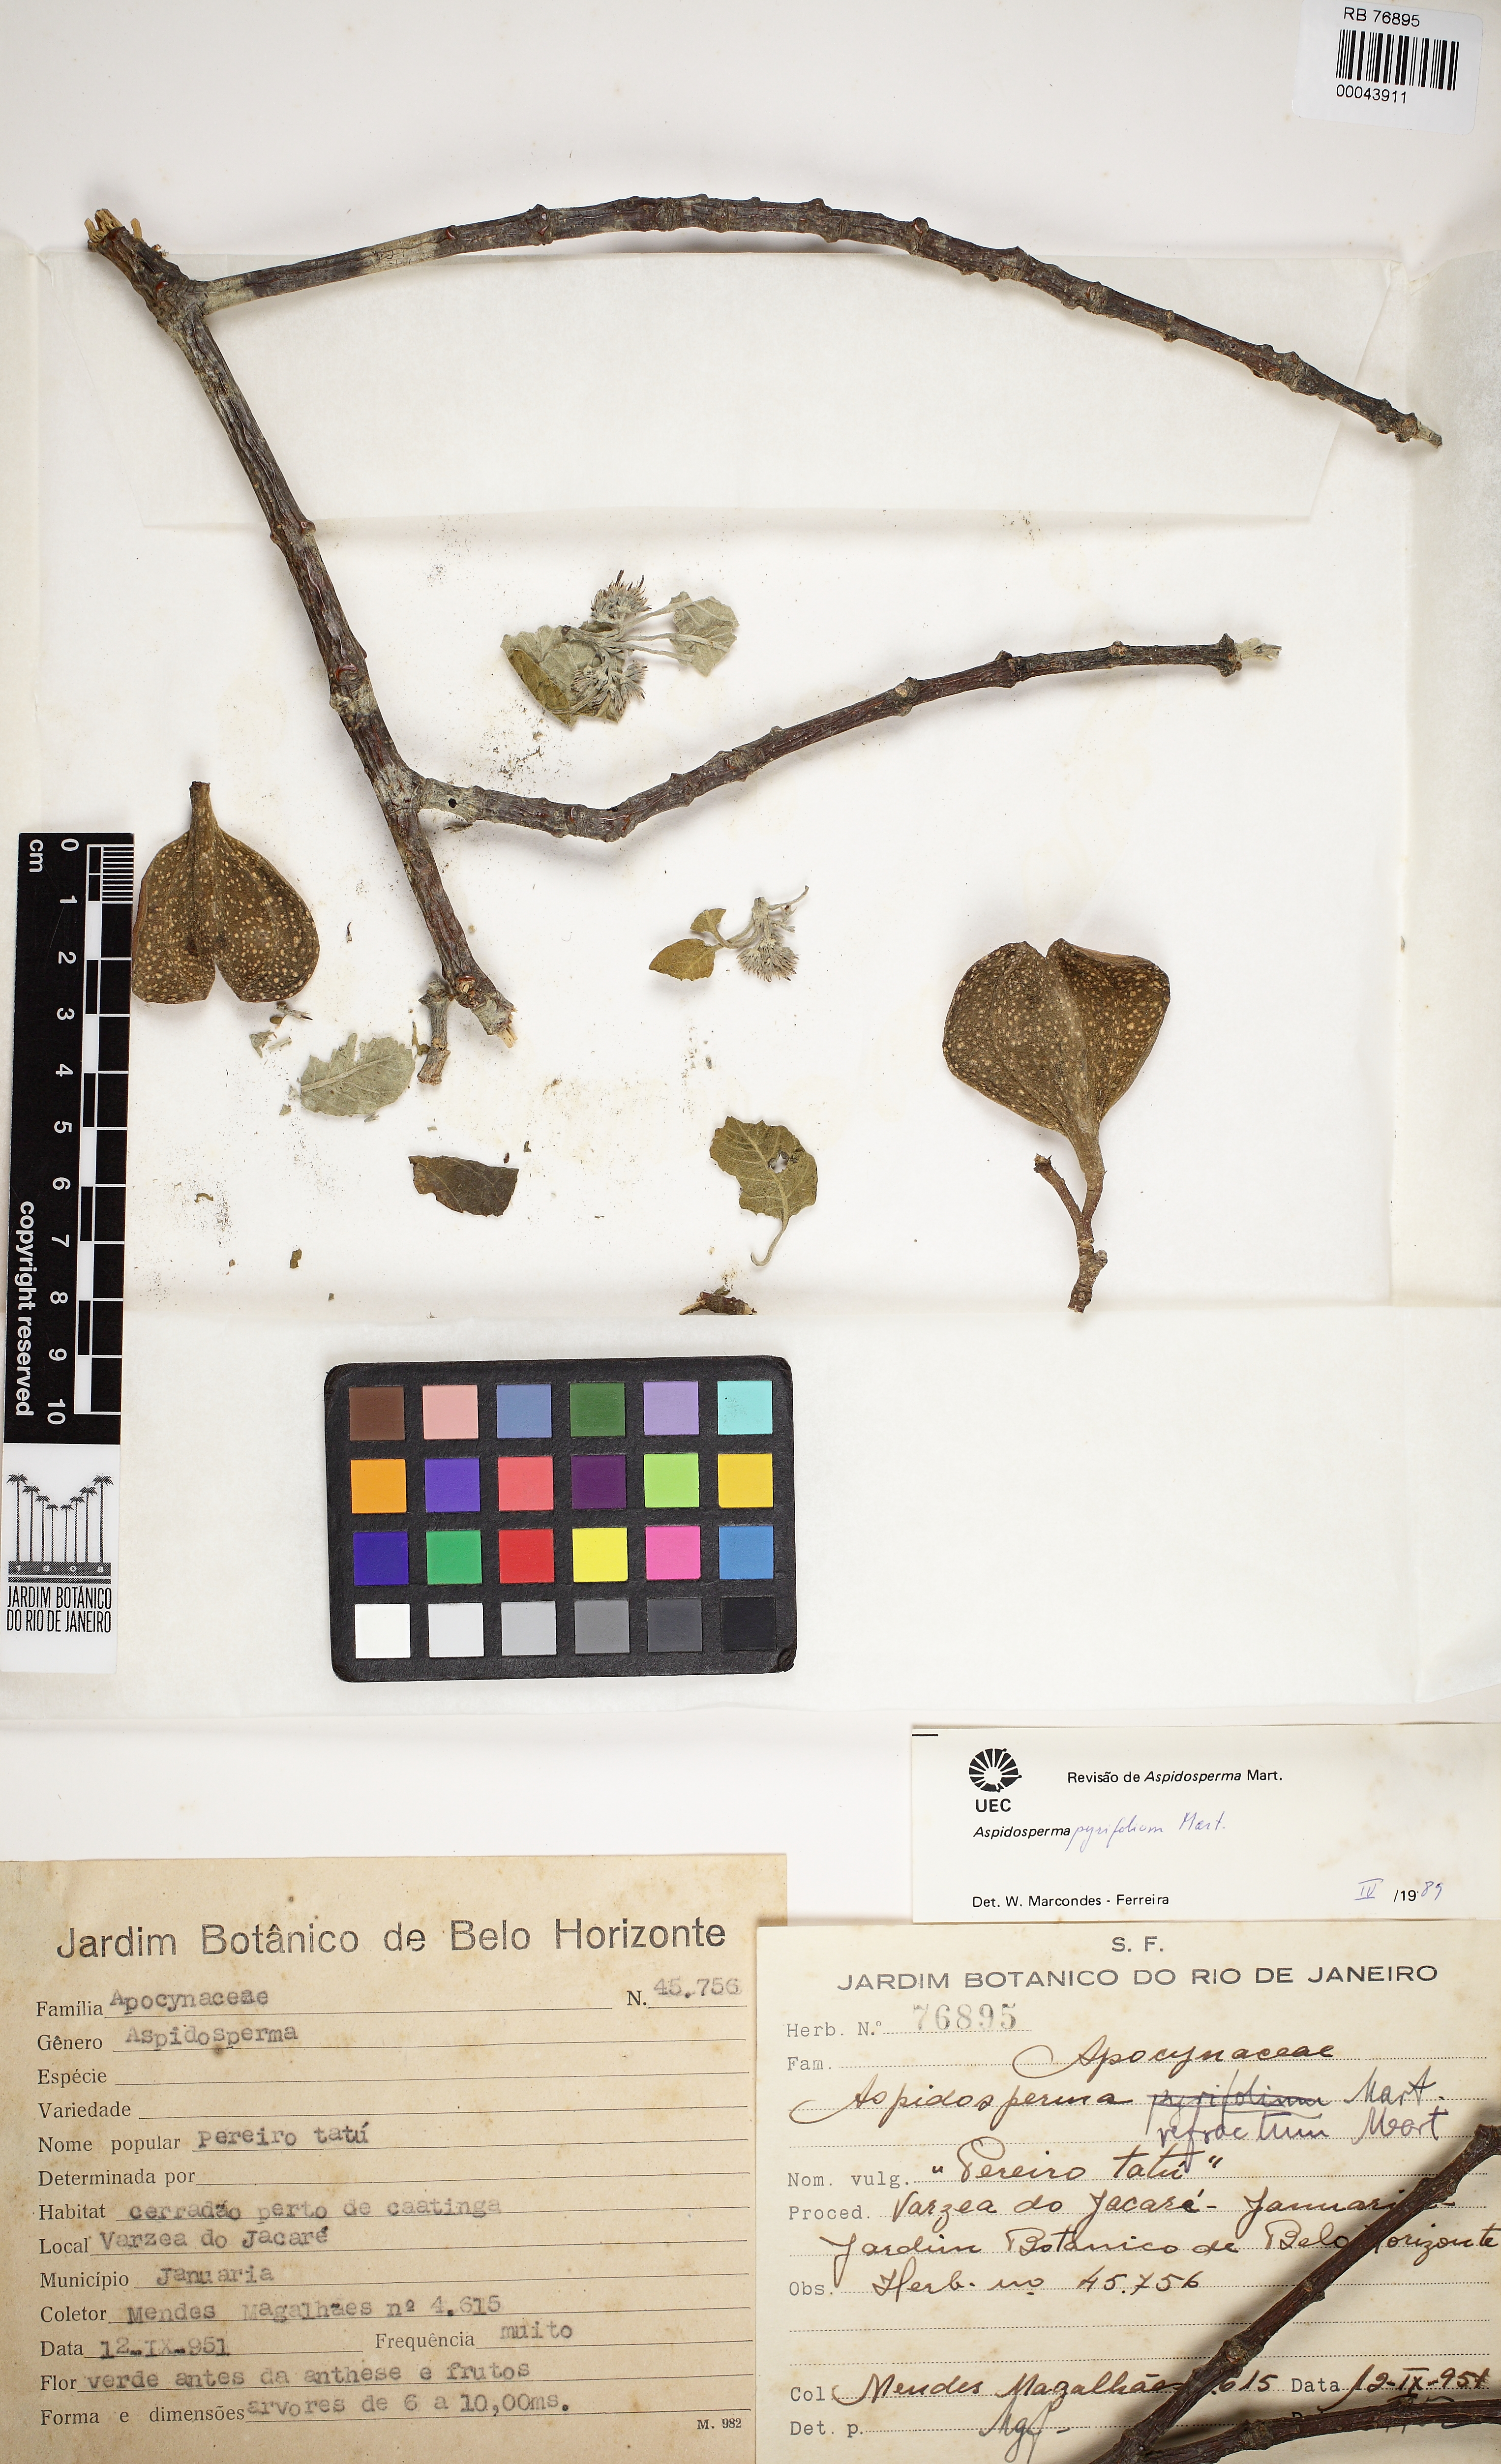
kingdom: Plantae
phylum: Tracheophyta
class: Magnoliopsida
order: Gentianales
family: Apocynaceae
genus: Aspidosperma
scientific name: Aspidosperma pyrifolium
